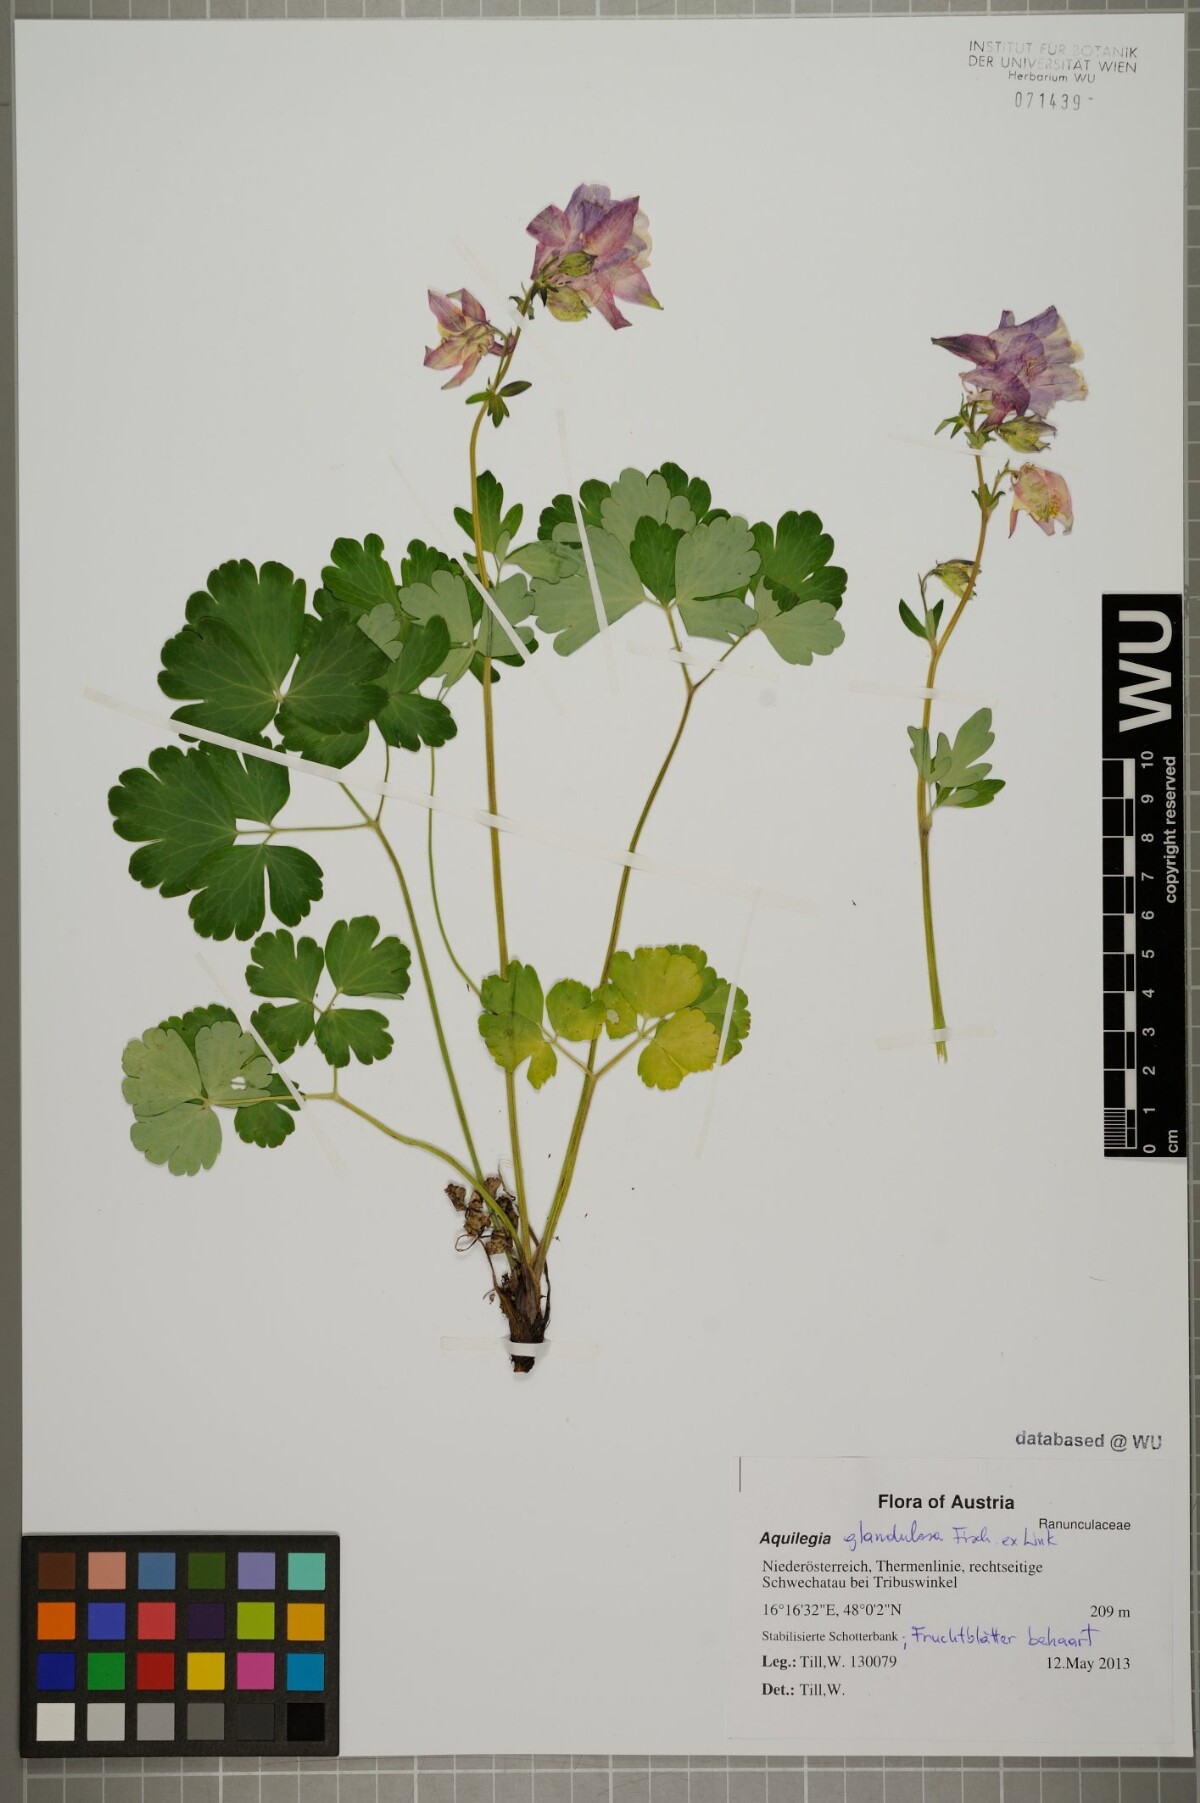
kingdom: Plantae
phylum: Tracheophyta
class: Magnoliopsida
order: Ranunculales
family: Ranunculaceae
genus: Aquilegia
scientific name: Aquilegia glandulosa
